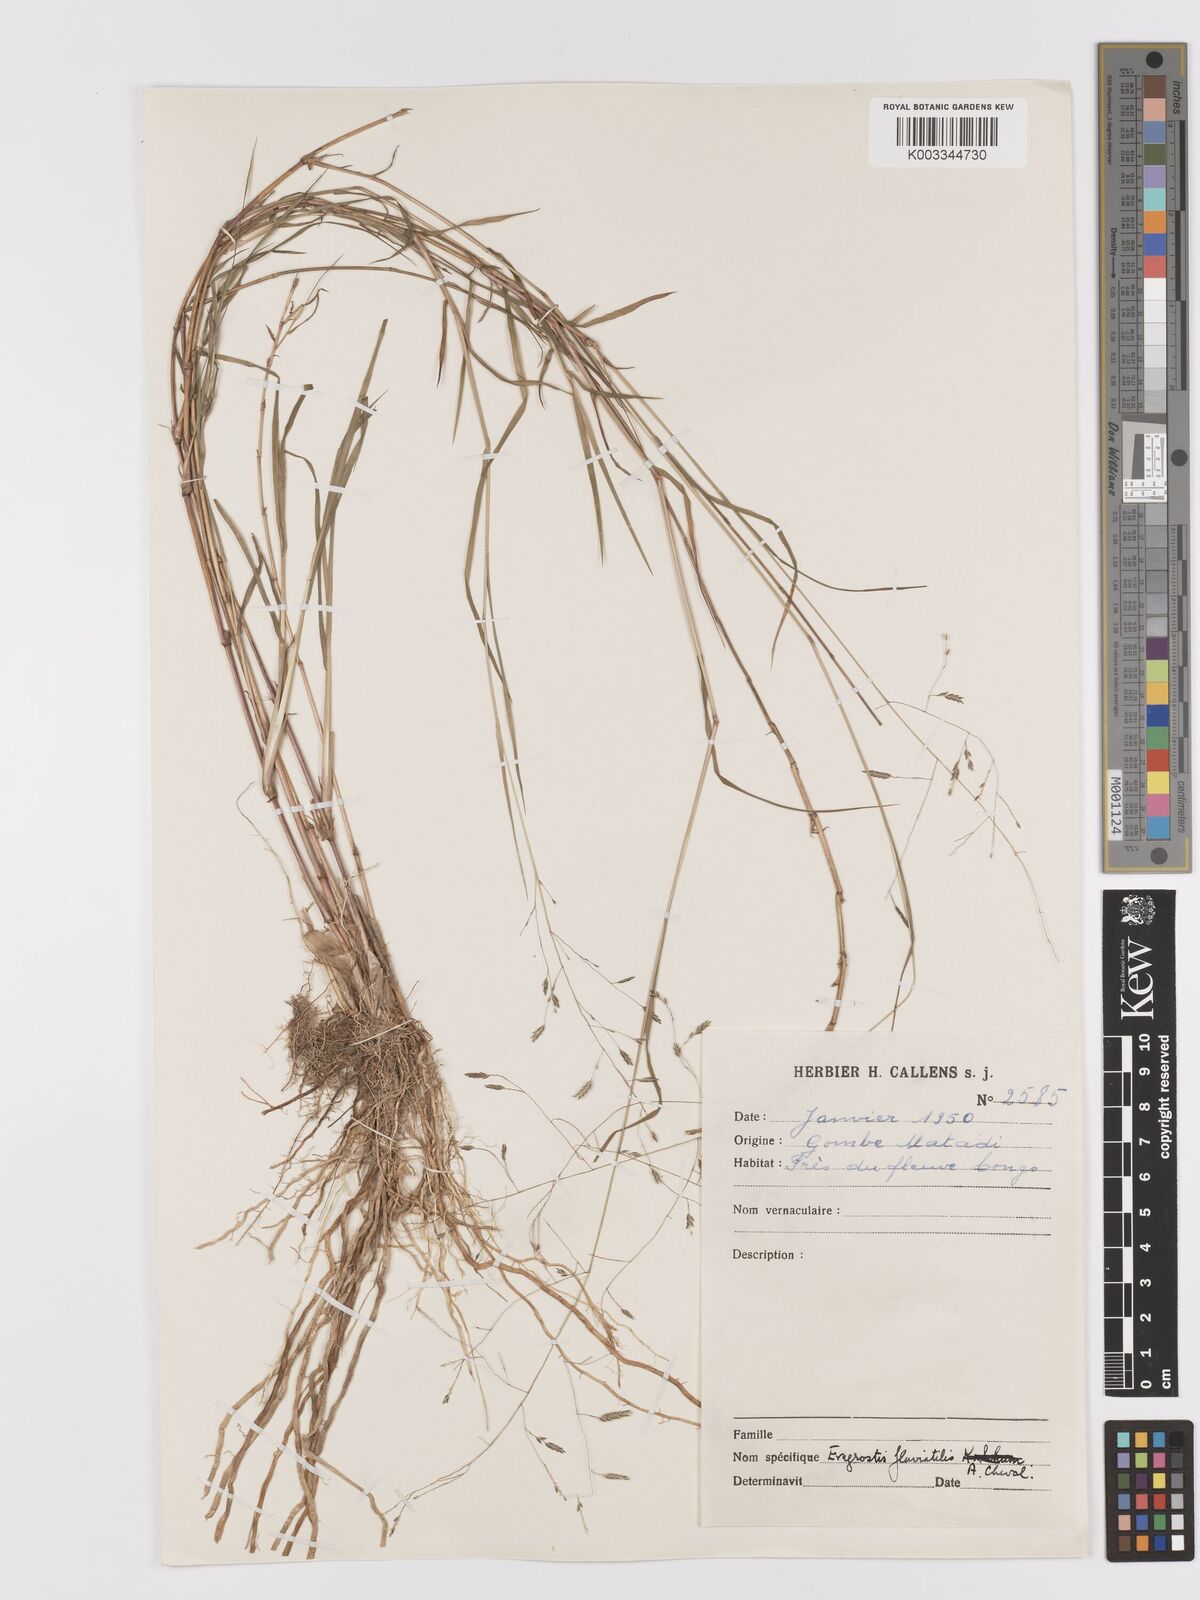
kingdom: Plantae
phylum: Tracheophyta
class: Liliopsida
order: Poales
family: Poaceae
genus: Eragrostis
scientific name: Eragrostis barteri
